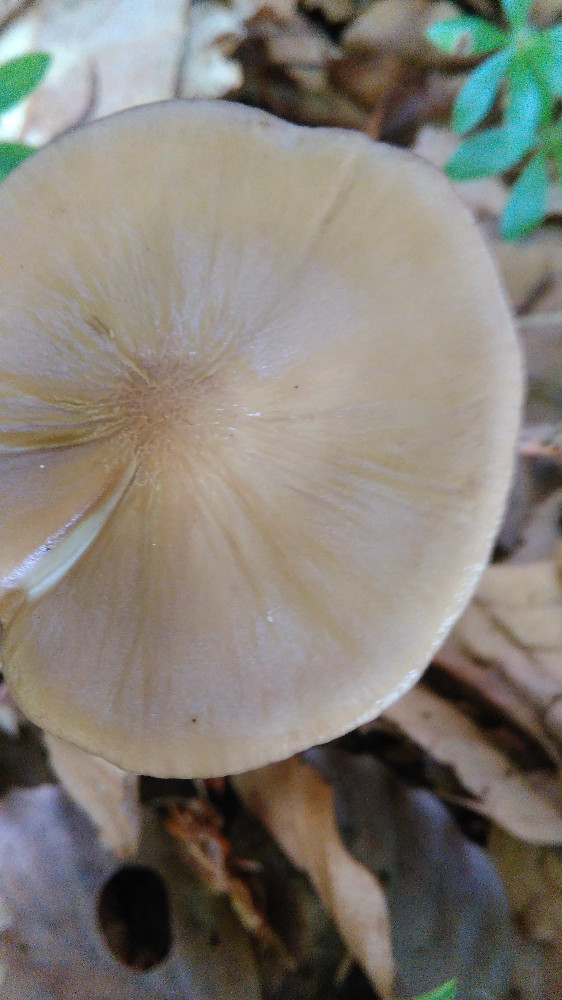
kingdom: Fungi
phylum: Basidiomycota
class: Agaricomycetes
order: Agaricales
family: Physalacriaceae
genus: Hymenopellis
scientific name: Hymenopellis radicata
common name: almindelig pælerodshat
